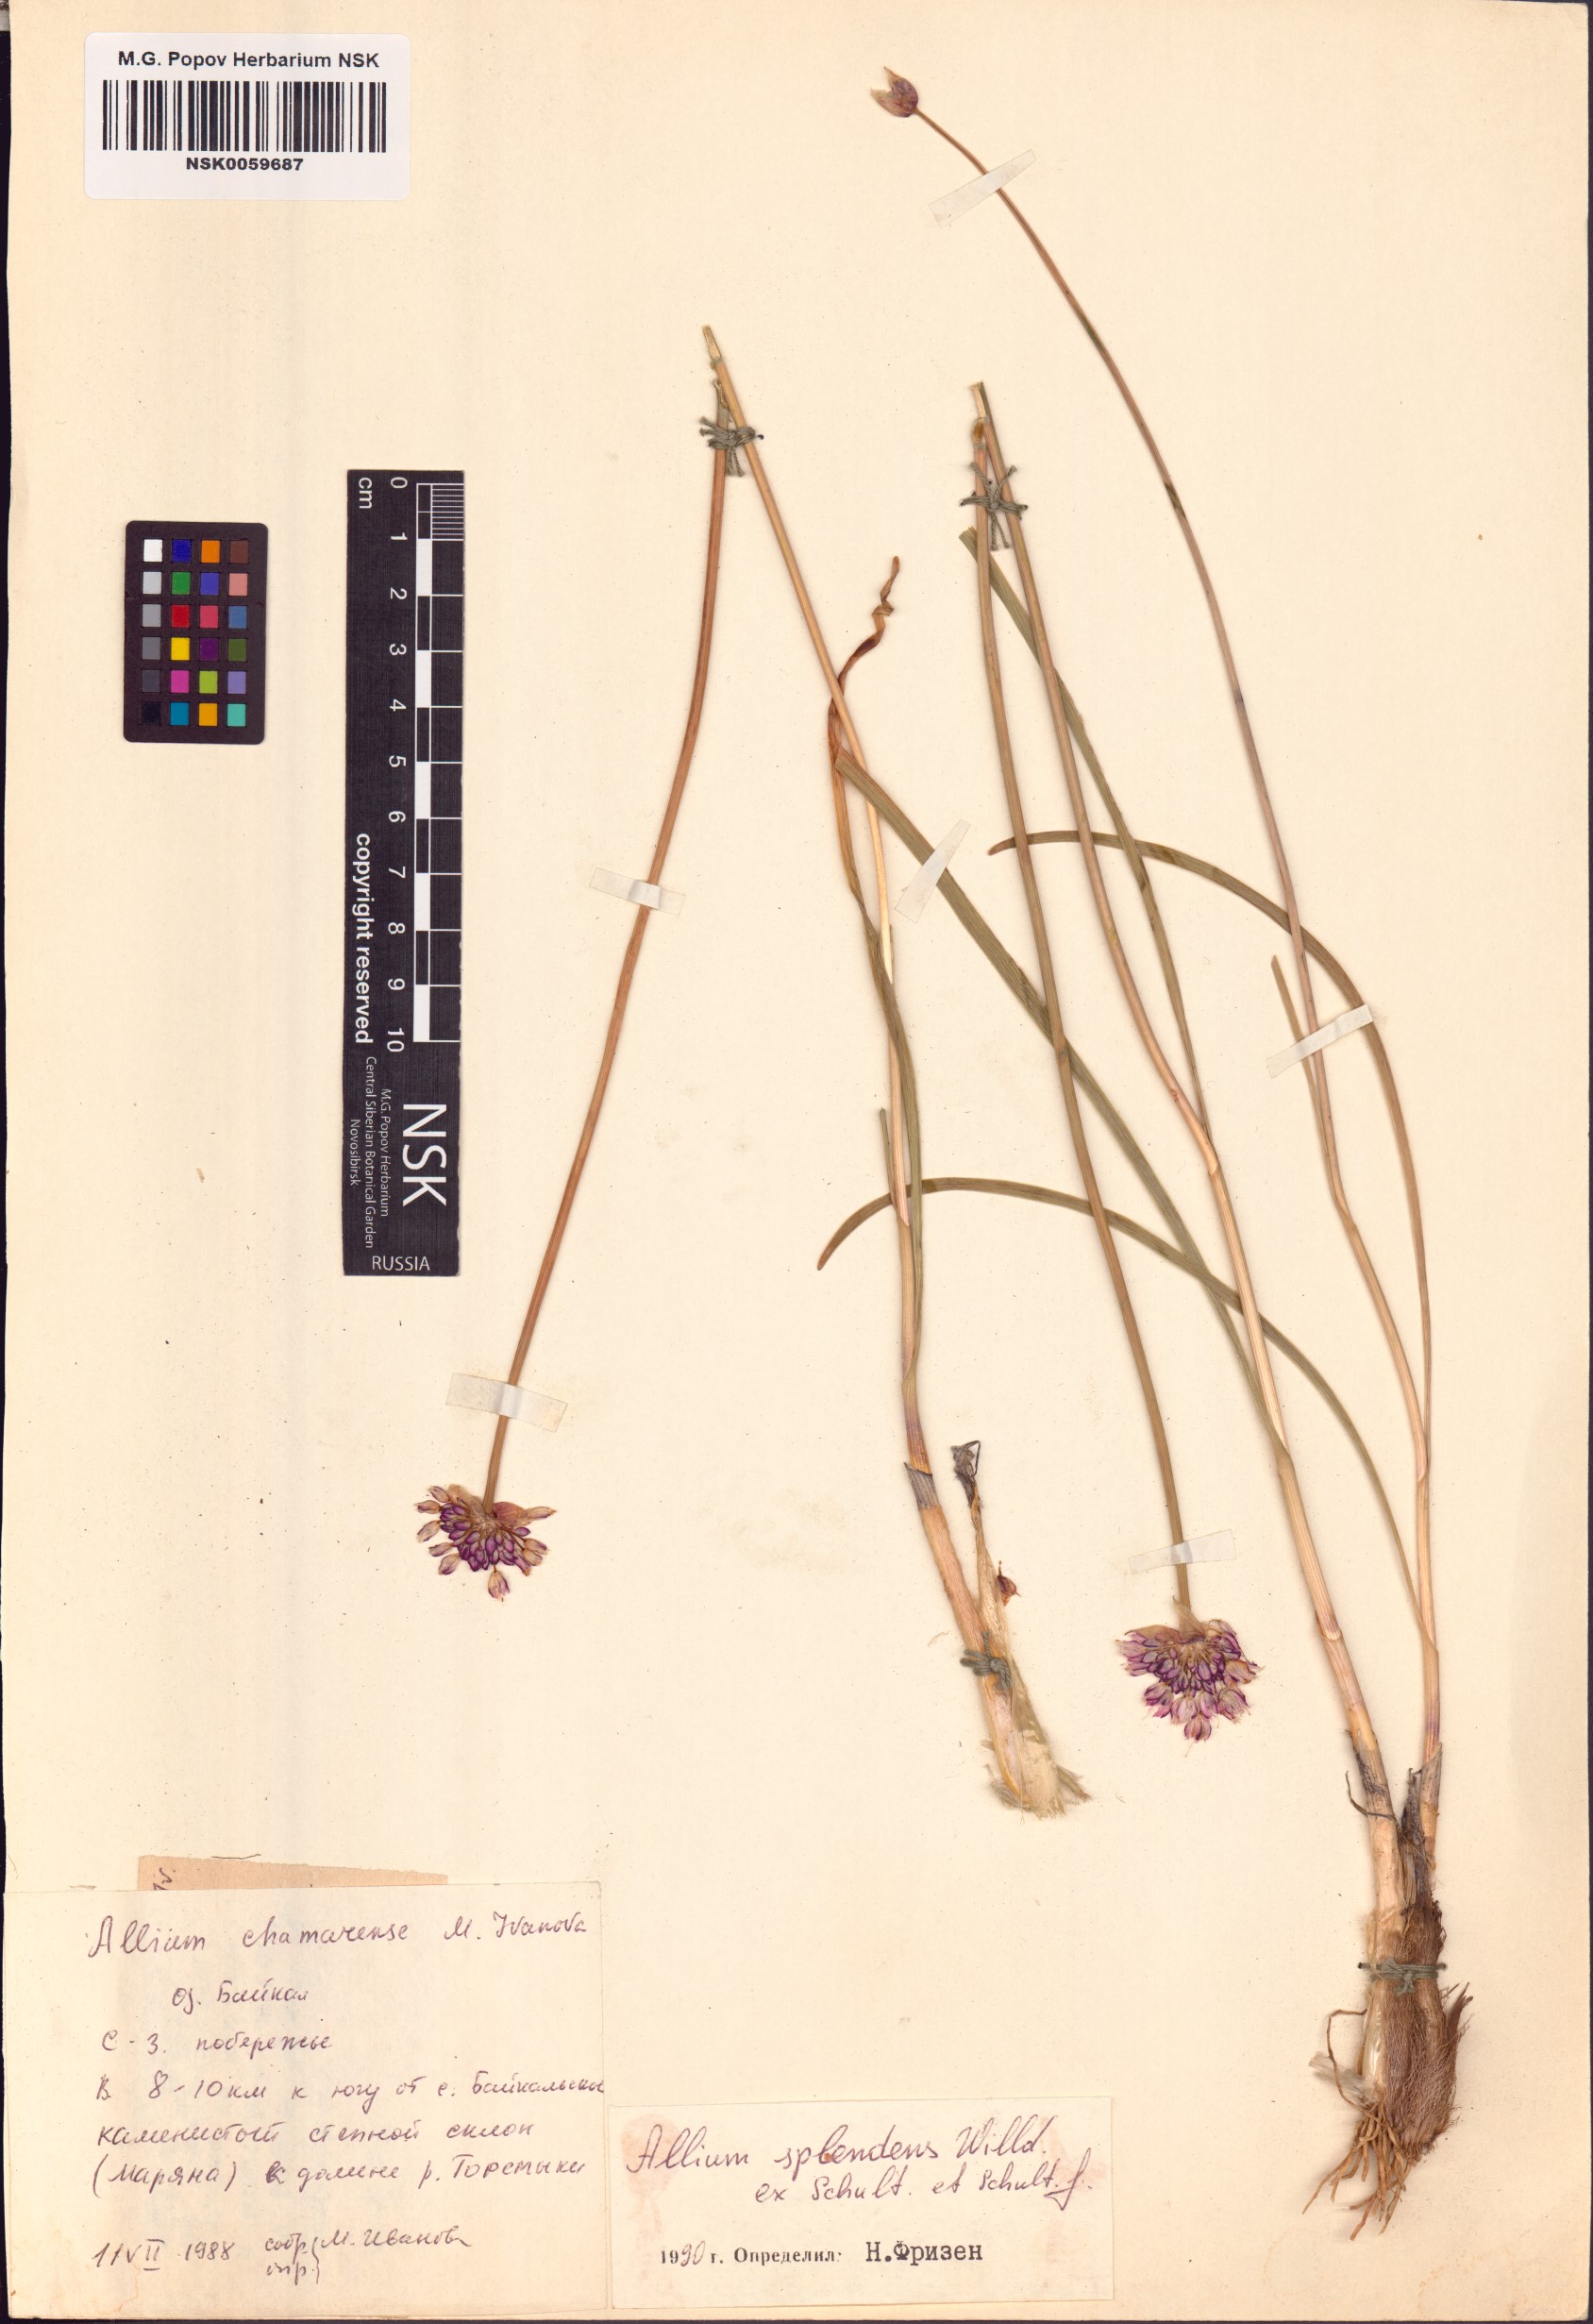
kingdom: Plantae
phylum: Tracheophyta
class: Liliopsida
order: Asparagales
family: Amaryllidaceae
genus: Allium
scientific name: Allium splendens
